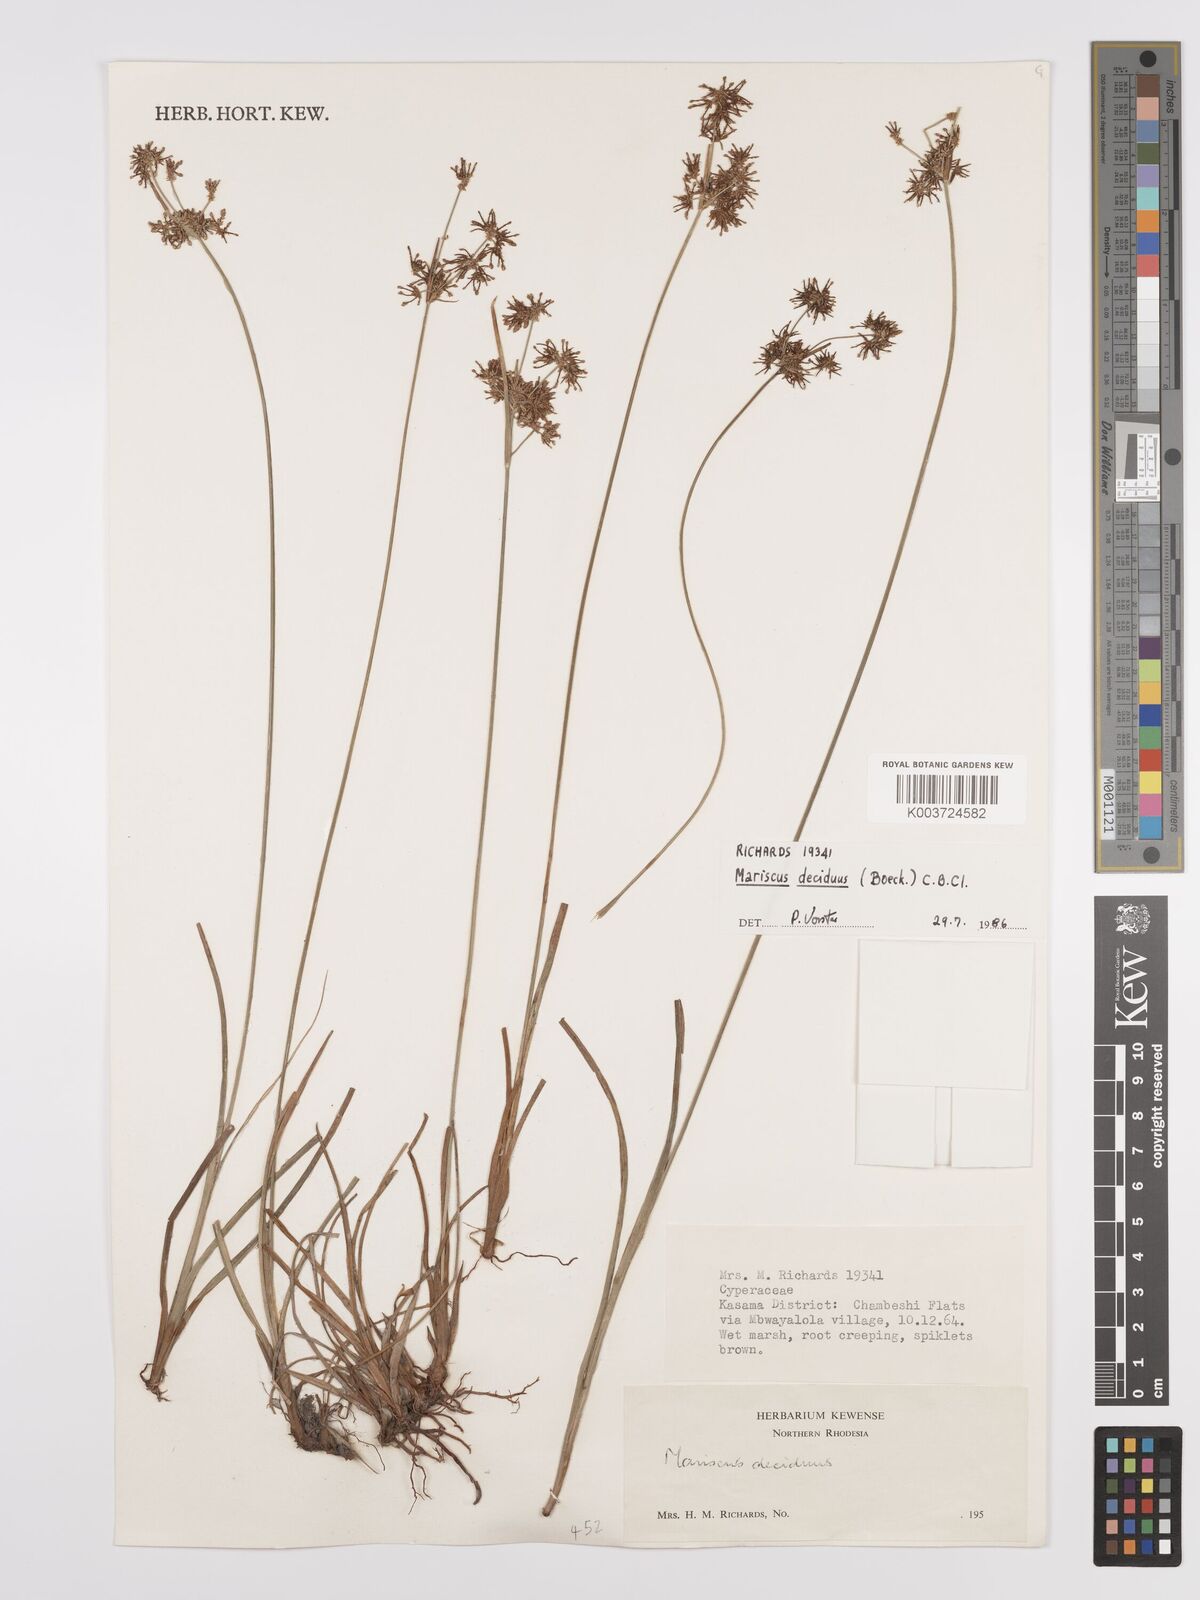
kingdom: Plantae
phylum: Tracheophyta
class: Liliopsida
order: Poales
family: Cyperaceae
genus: Cyperus
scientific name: Cyperus deciduus
